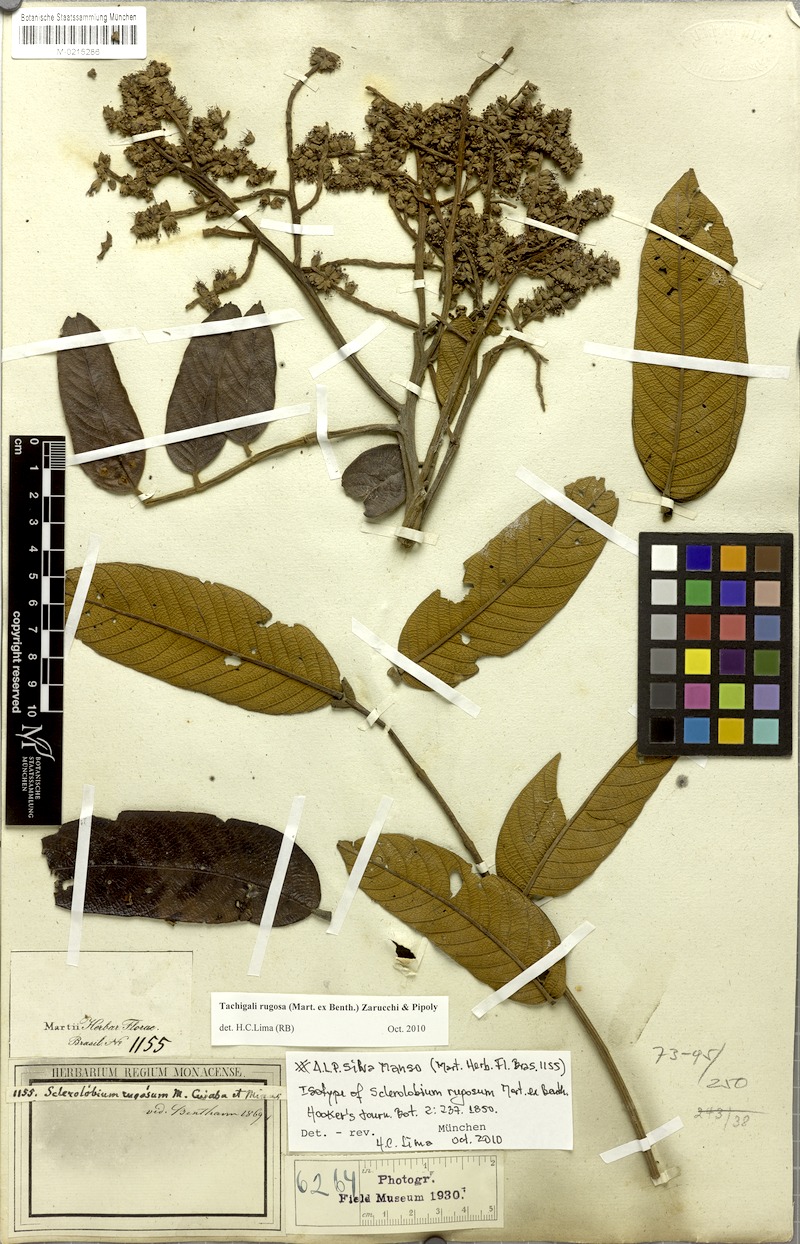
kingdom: Plantae
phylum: Tracheophyta
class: Magnoliopsida
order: Fabales
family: Fabaceae
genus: Tachigali
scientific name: Tachigali rugosa
